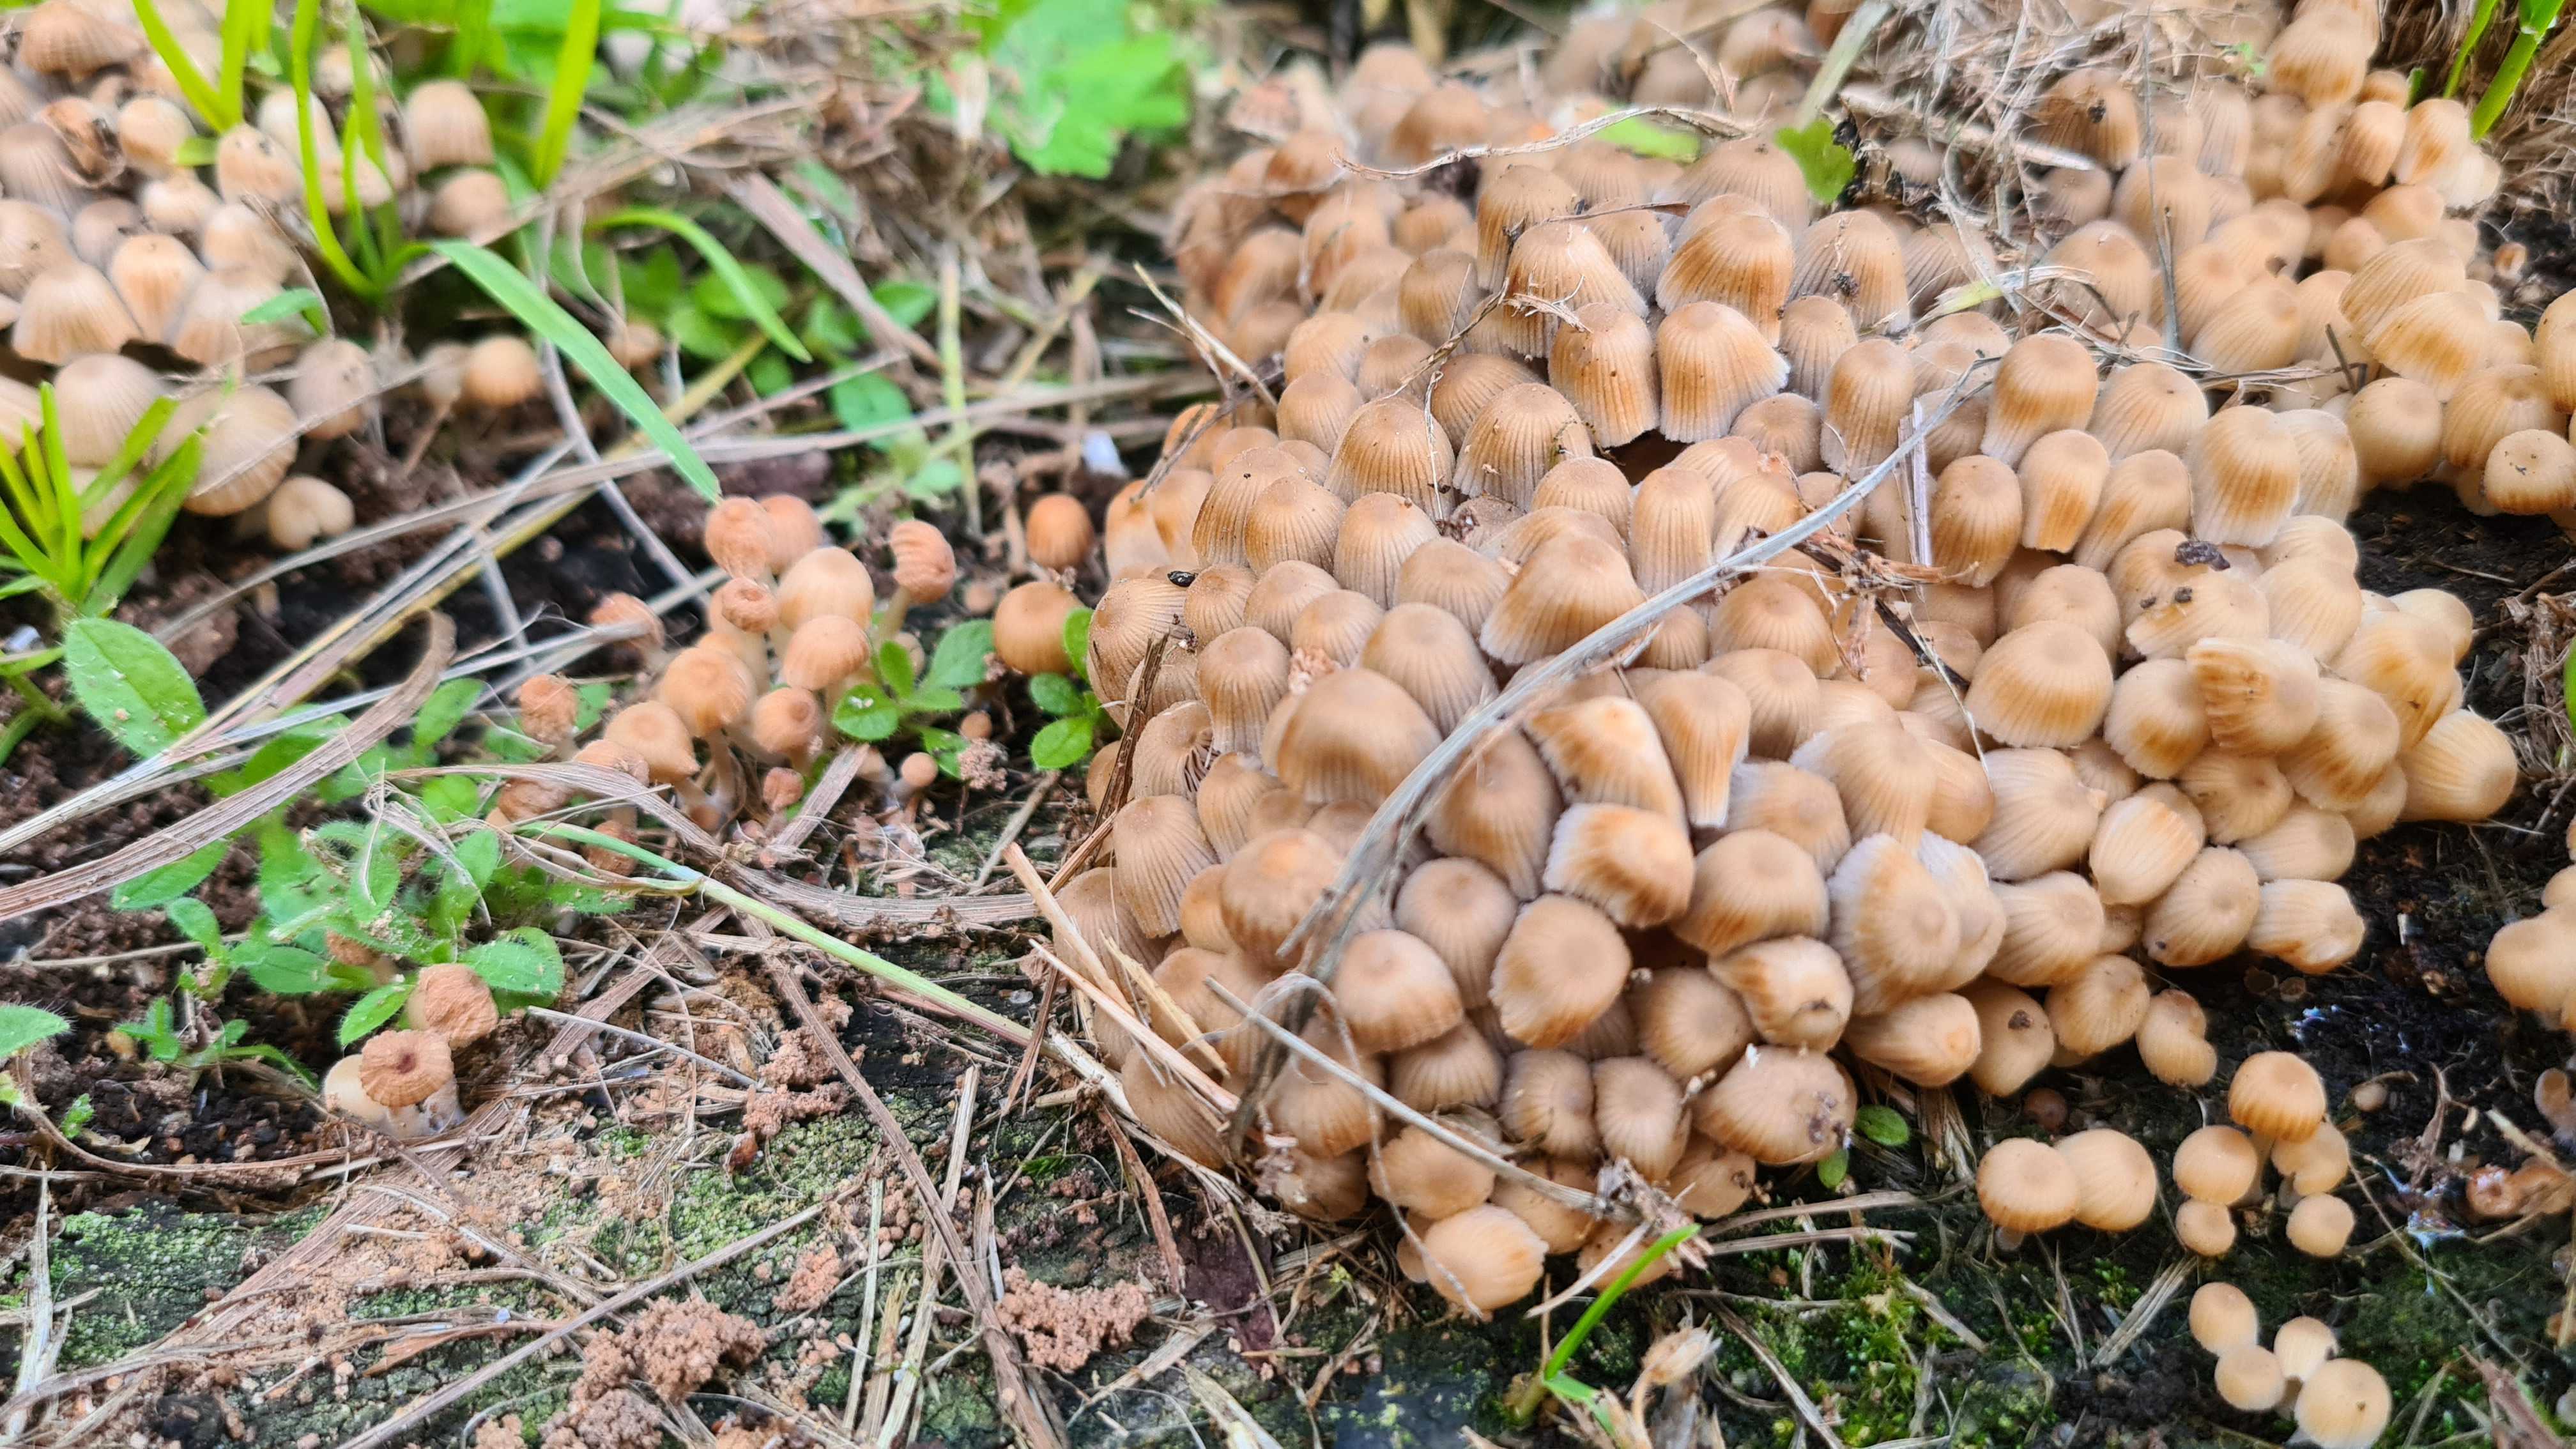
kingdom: Fungi
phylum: Basidiomycota
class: Agaricomycetes
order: Agaricales
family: Psathyrellaceae
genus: Coprinellus
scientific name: Coprinellus disseminatus
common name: bredsået blækhat
